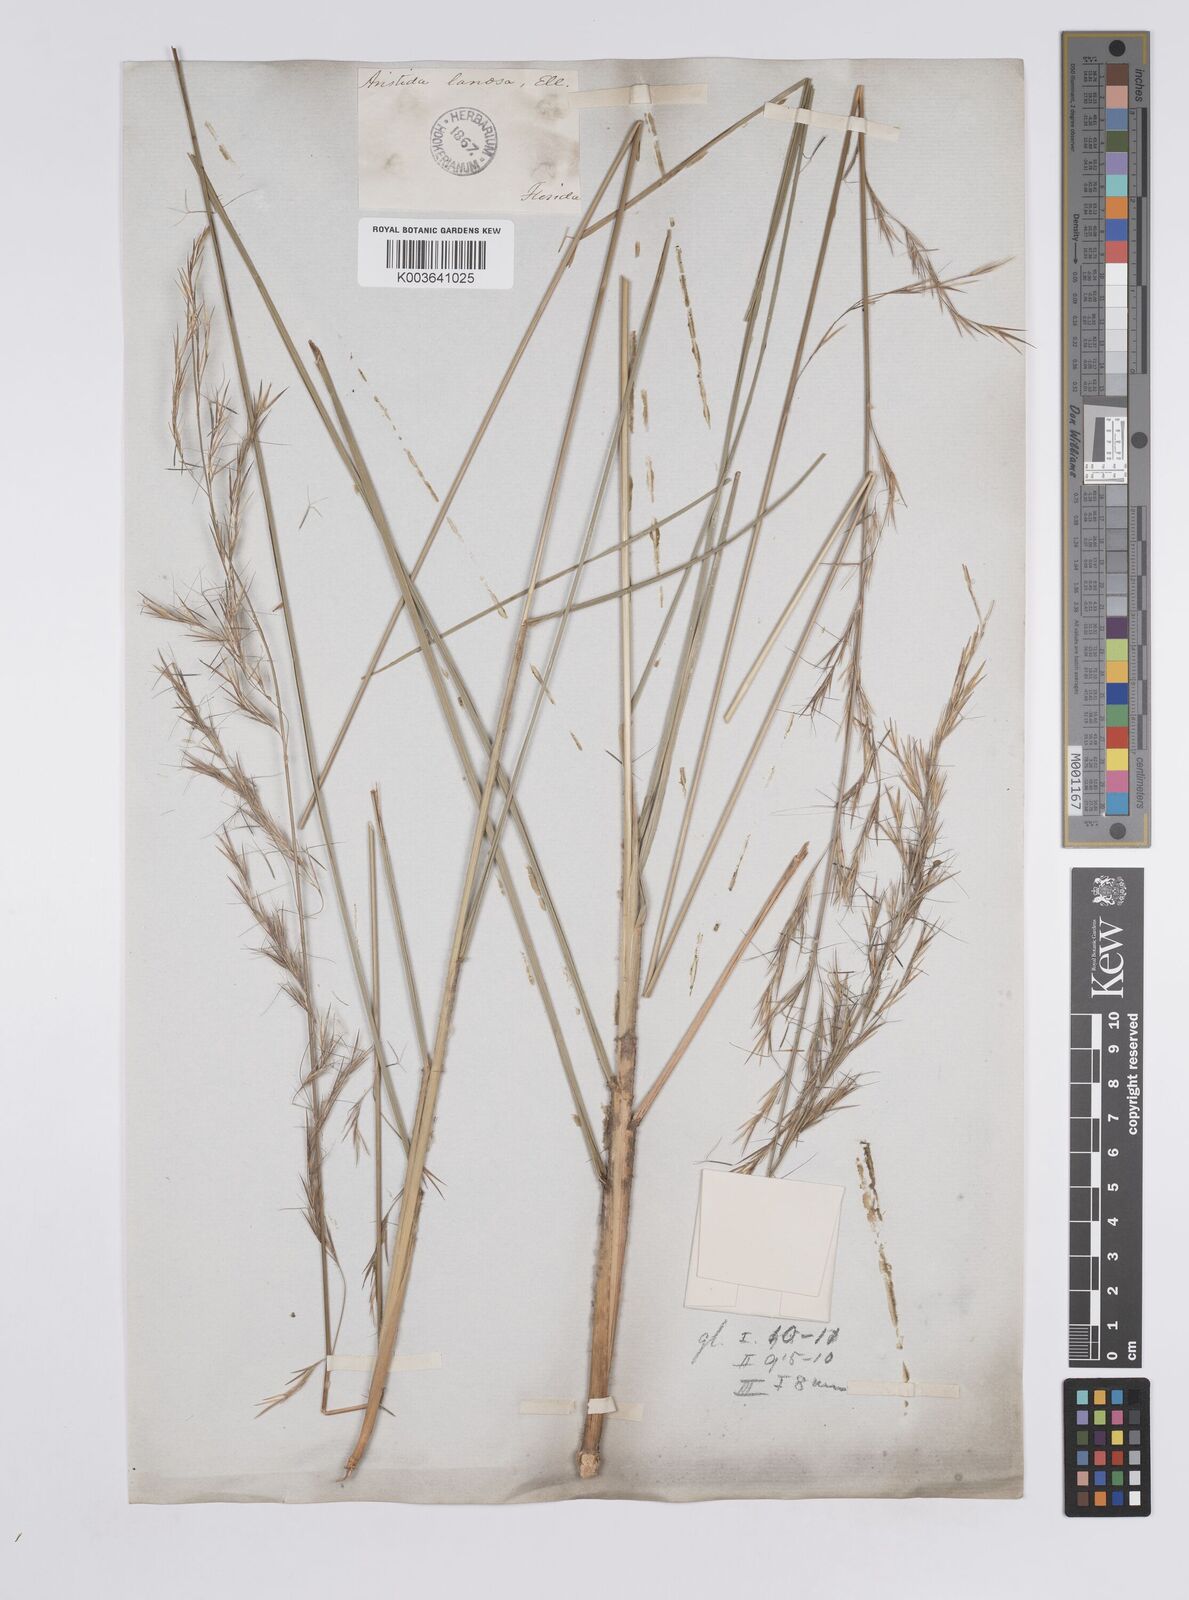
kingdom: Plantae
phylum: Tracheophyta
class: Liliopsida
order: Poales
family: Poaceae
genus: Aristida
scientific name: Aristida lanosa
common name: Woolly three-awn
